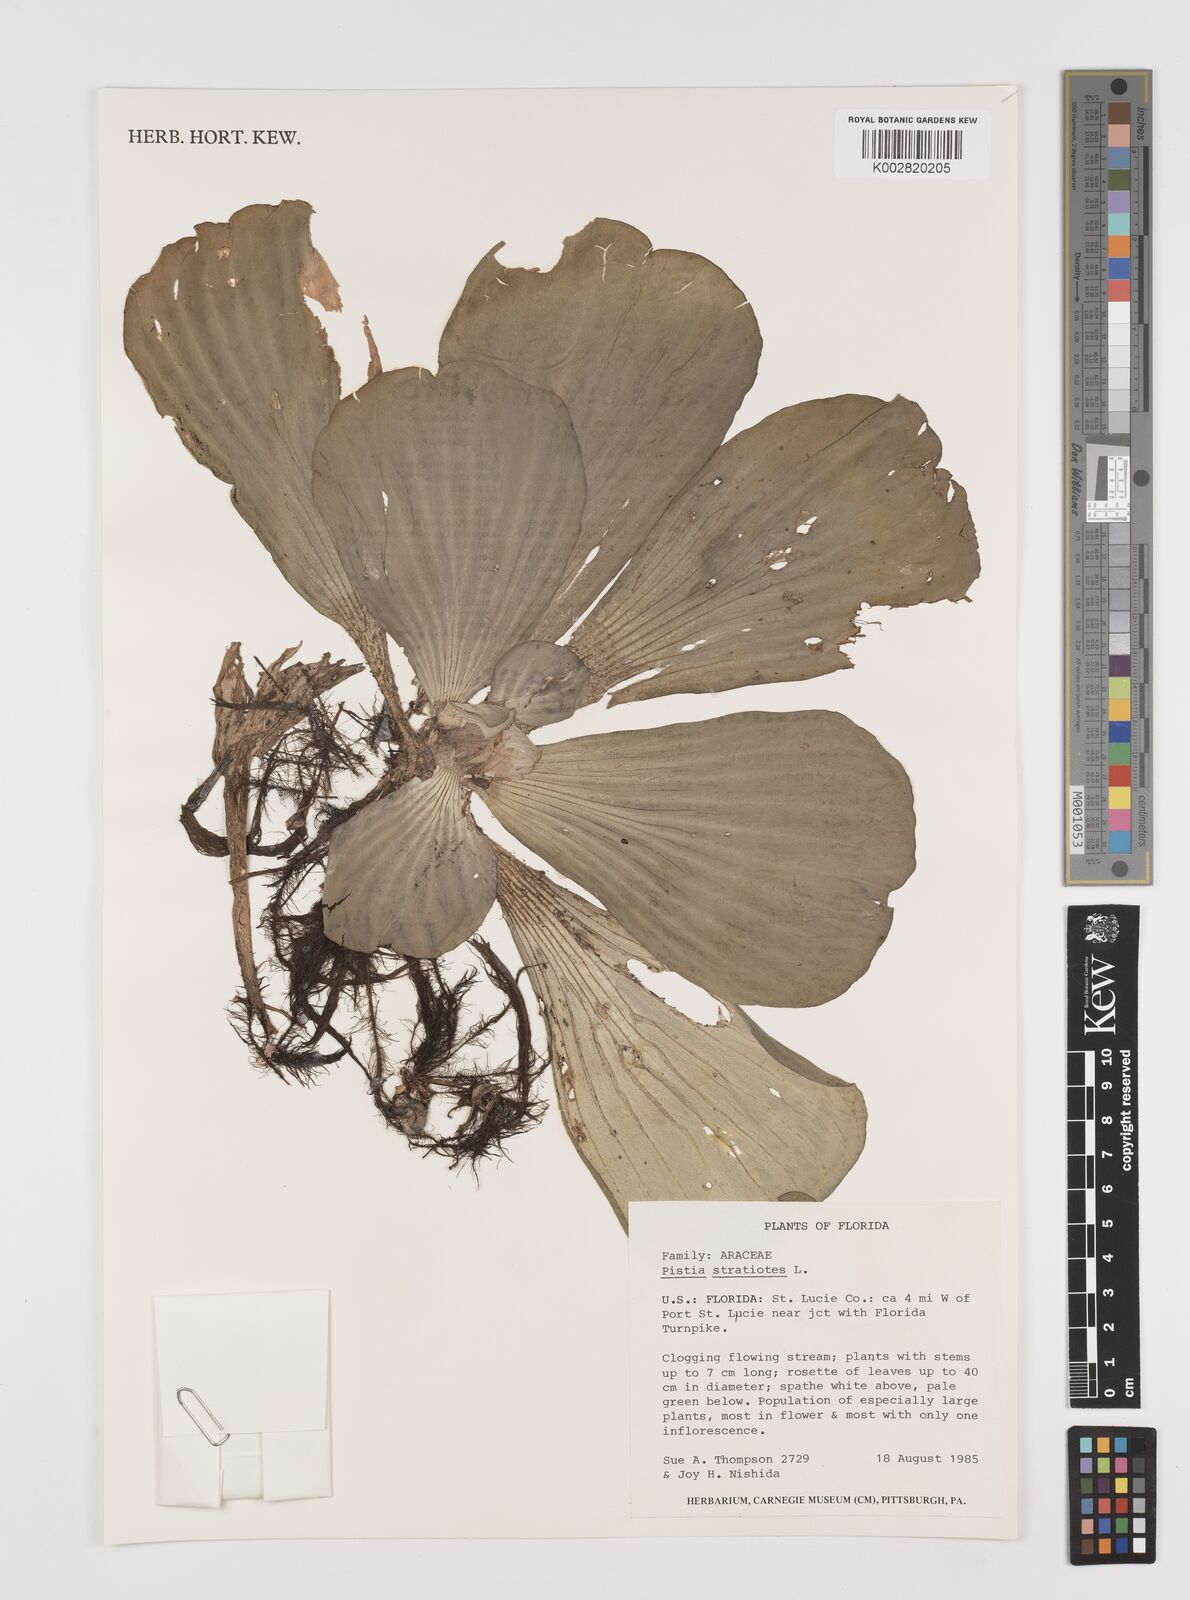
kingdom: Plantae
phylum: Tracheophyta
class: Liliopsida
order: Alismatales
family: Araceae
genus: Pistia
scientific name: Pistia stratiotes
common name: Water lettuce
